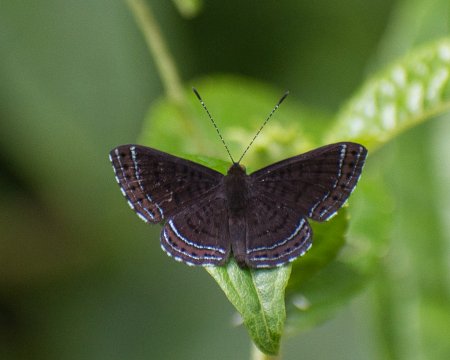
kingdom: Animalia
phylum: Arthropoda
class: Insecta
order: Lepidoptera
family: Lycaenidae
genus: Emesis
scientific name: Emesis irina
